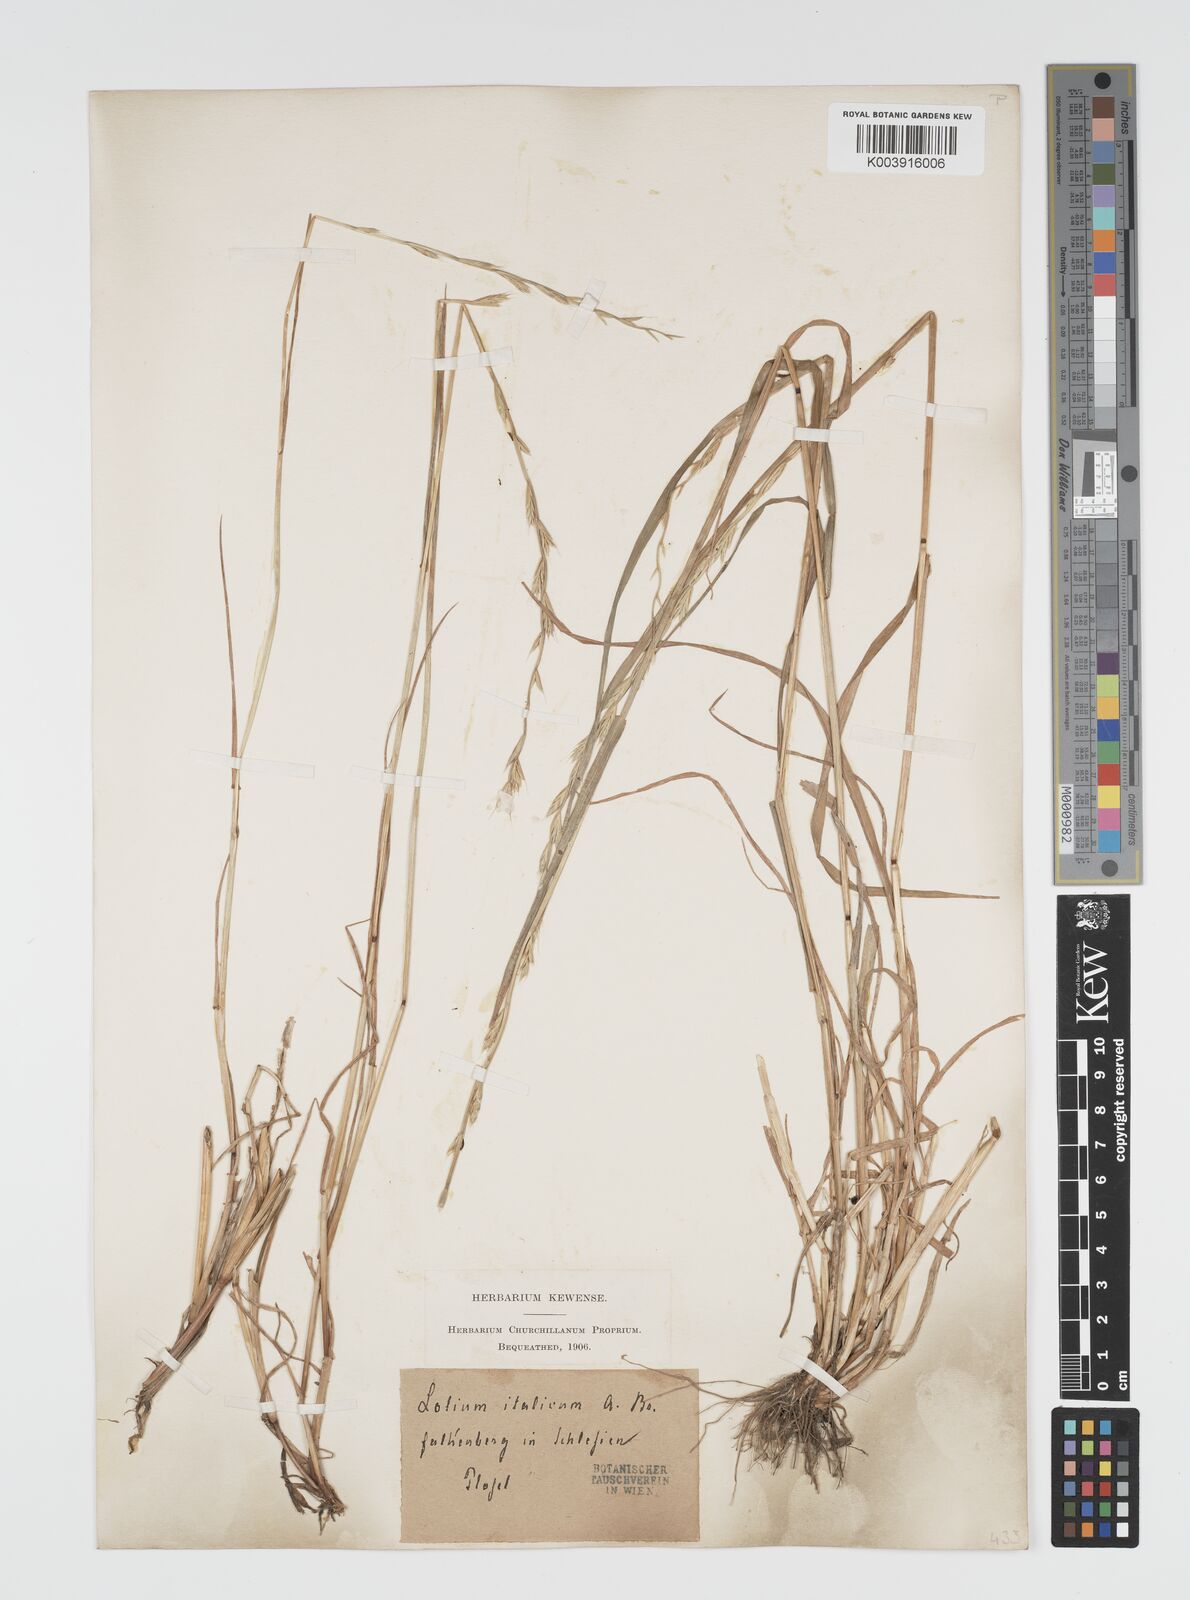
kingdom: Plantae
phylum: Tracheophyta
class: Liliopsida
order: Poales
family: Poaceae
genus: Lolium
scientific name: Lolium multiflorum
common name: Annual ryegrass
